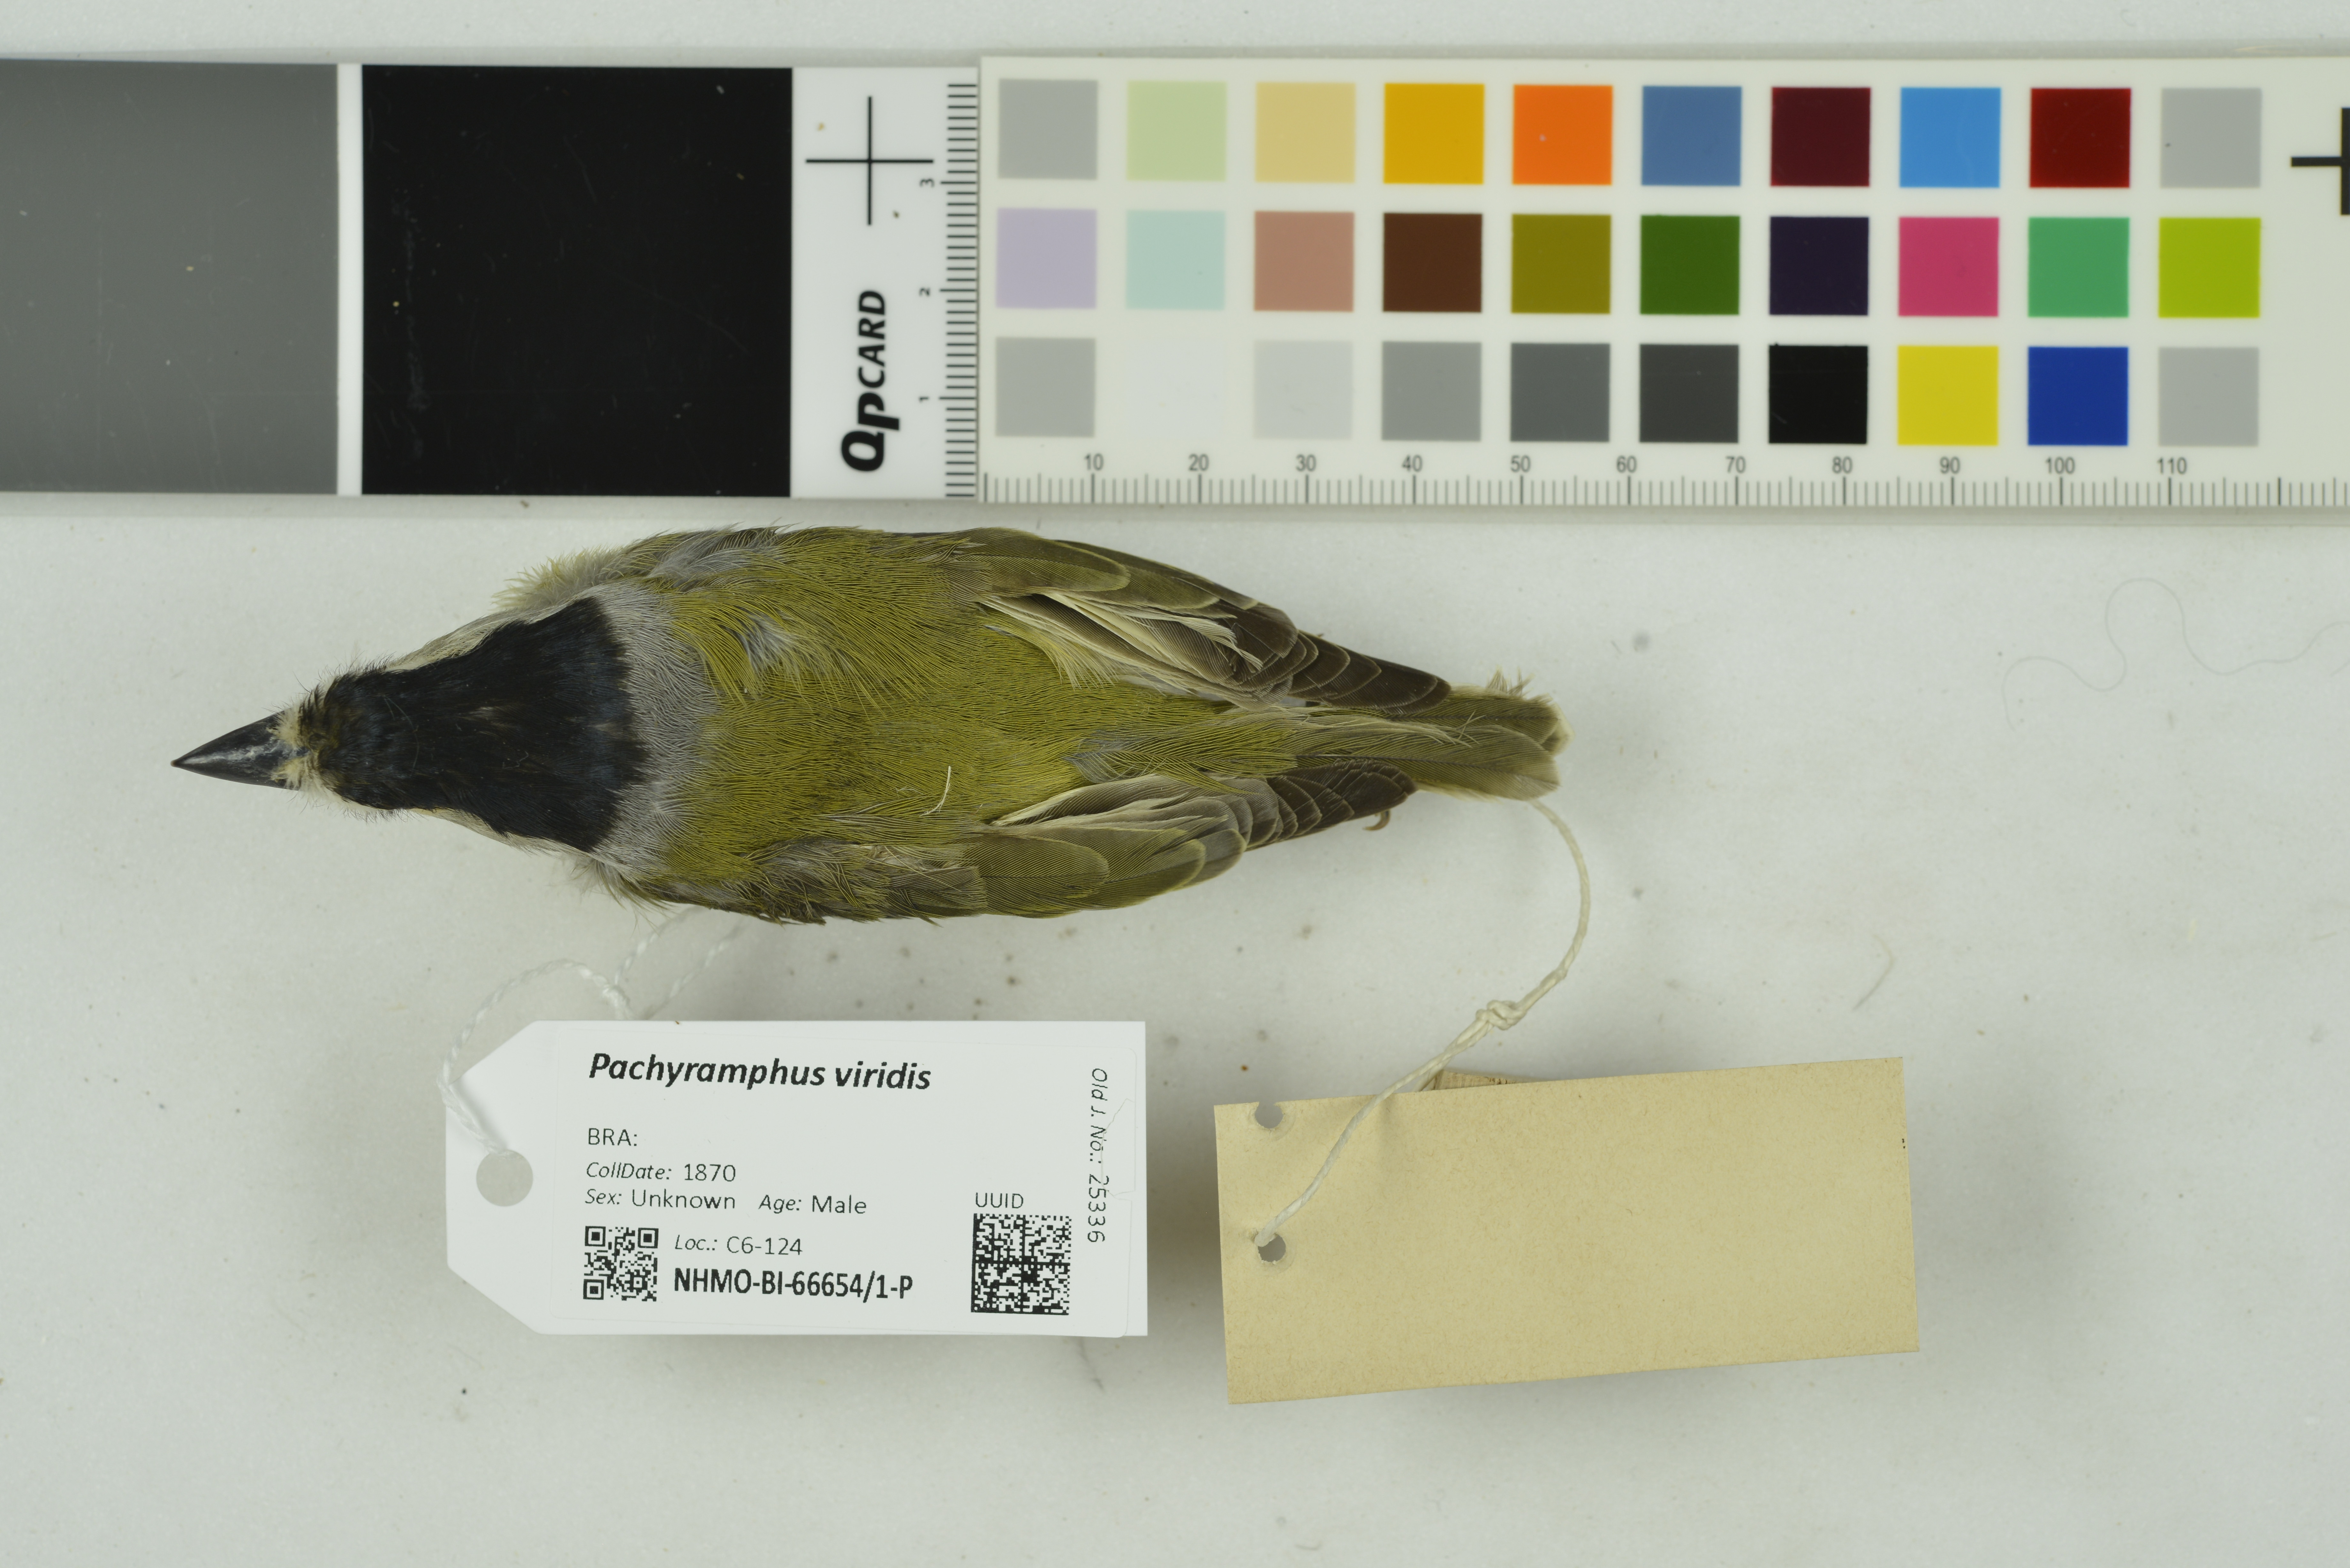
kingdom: Animalia
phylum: Chordata
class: Aves
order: Passeriformes
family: Cotingidae
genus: Pachyramphus
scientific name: Pachyramphus viridis
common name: Green-backed becard
